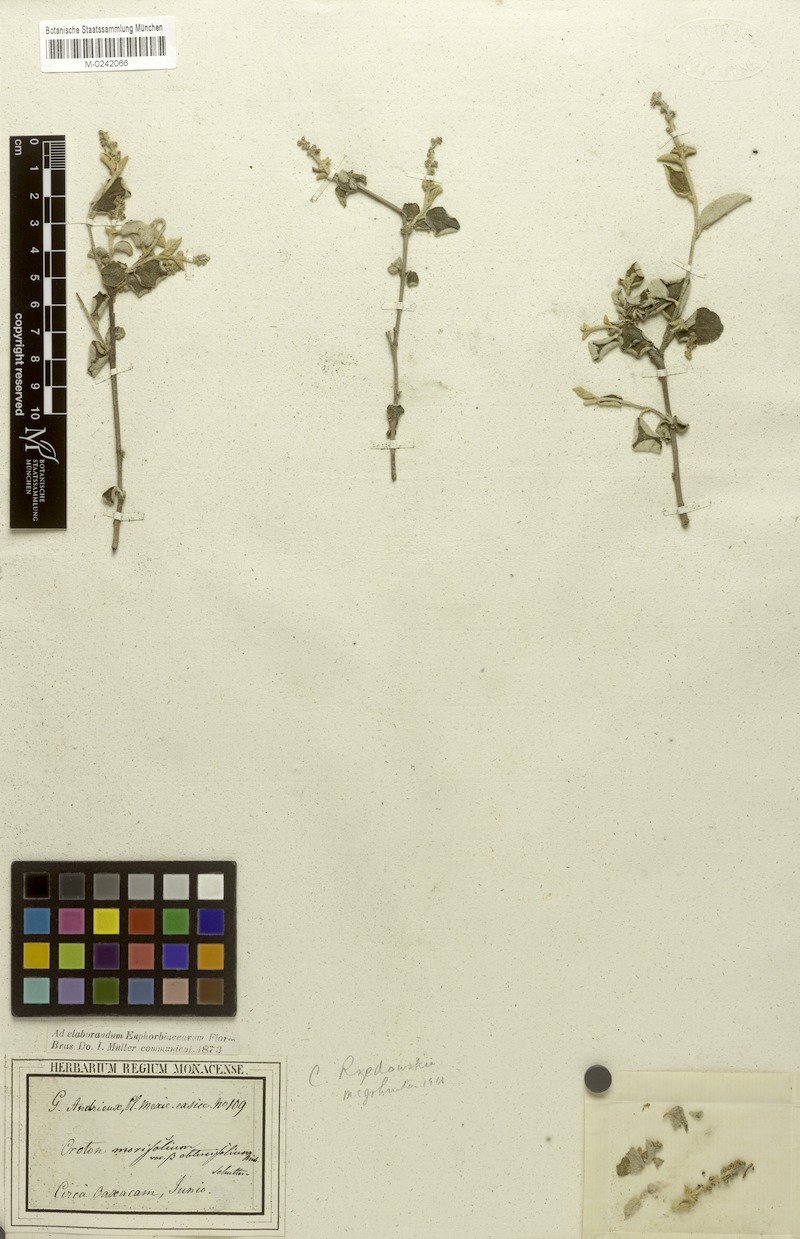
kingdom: Plantae
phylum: Tracheophyta
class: Magnoliopsida
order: Malpighiales
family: Euphorbiaceae
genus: Croton
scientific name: Croton mazapensis
